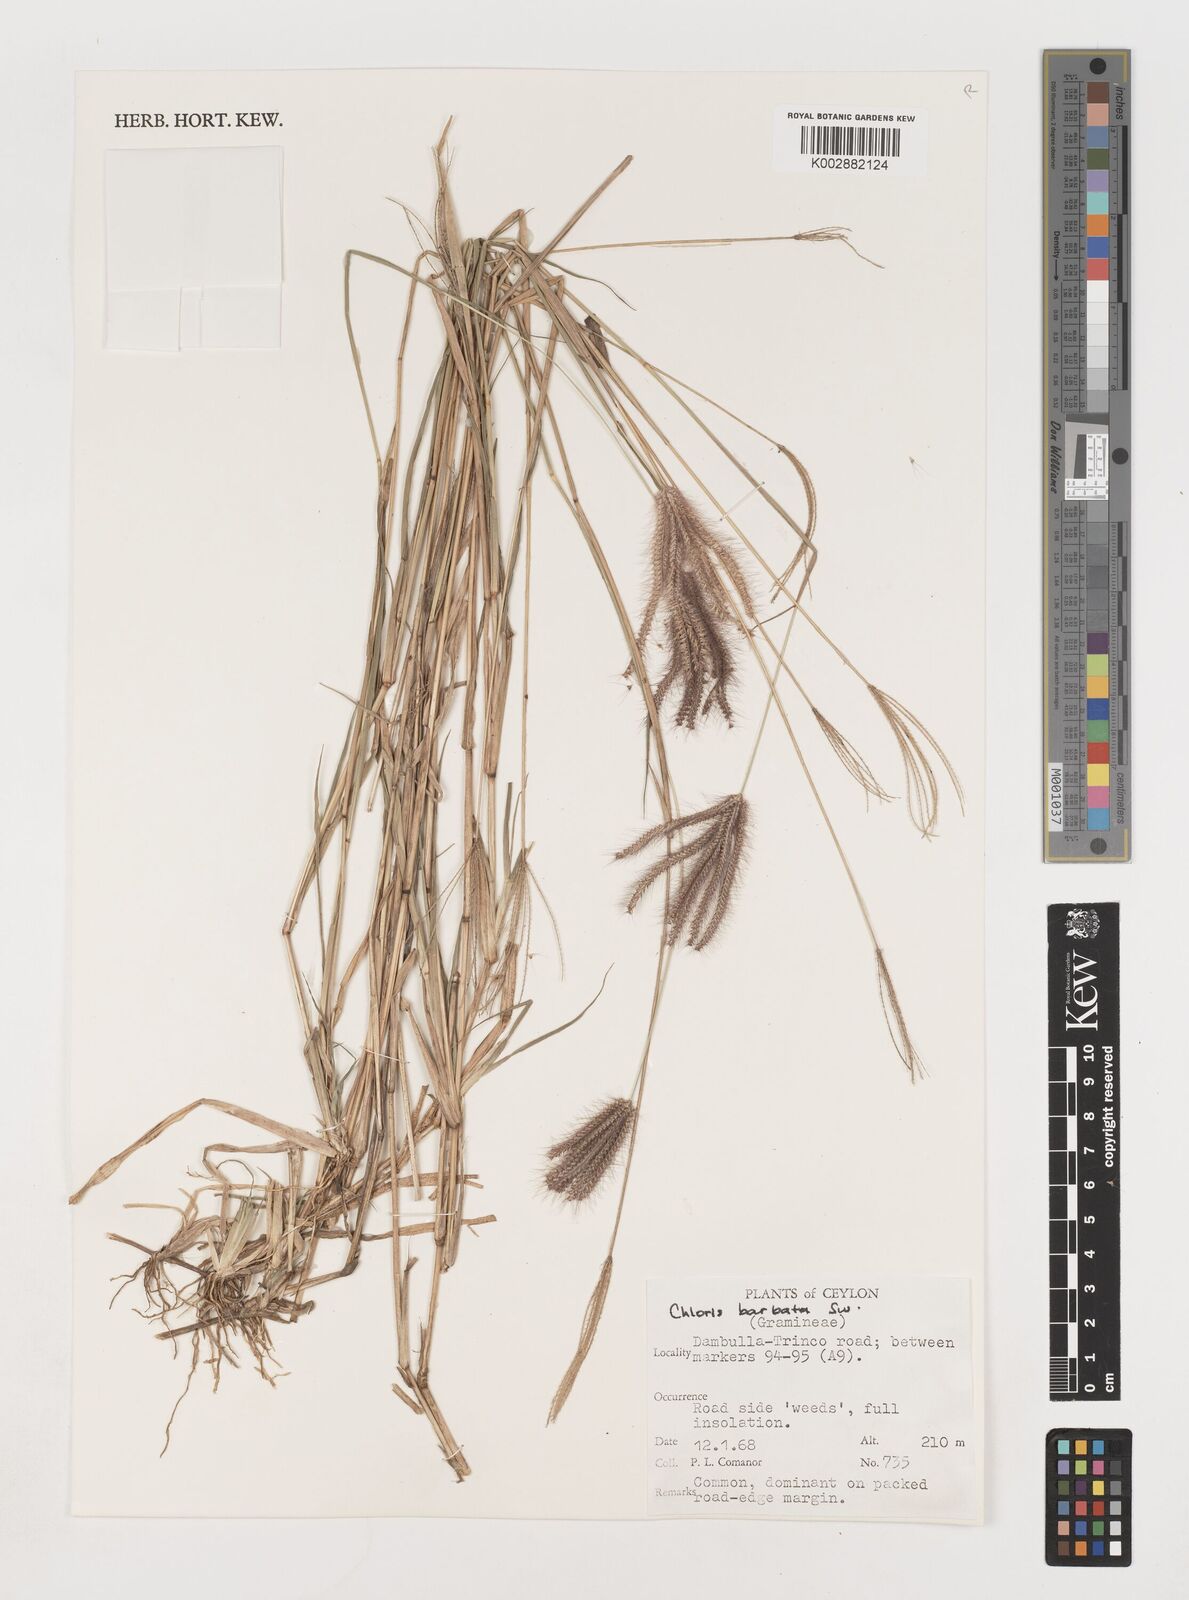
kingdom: Plantae
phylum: Tracheophyta
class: Liliopsida
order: Poales
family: Poaceae
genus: Chloris
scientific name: Chloris barbata
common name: Swollen fingergrass
